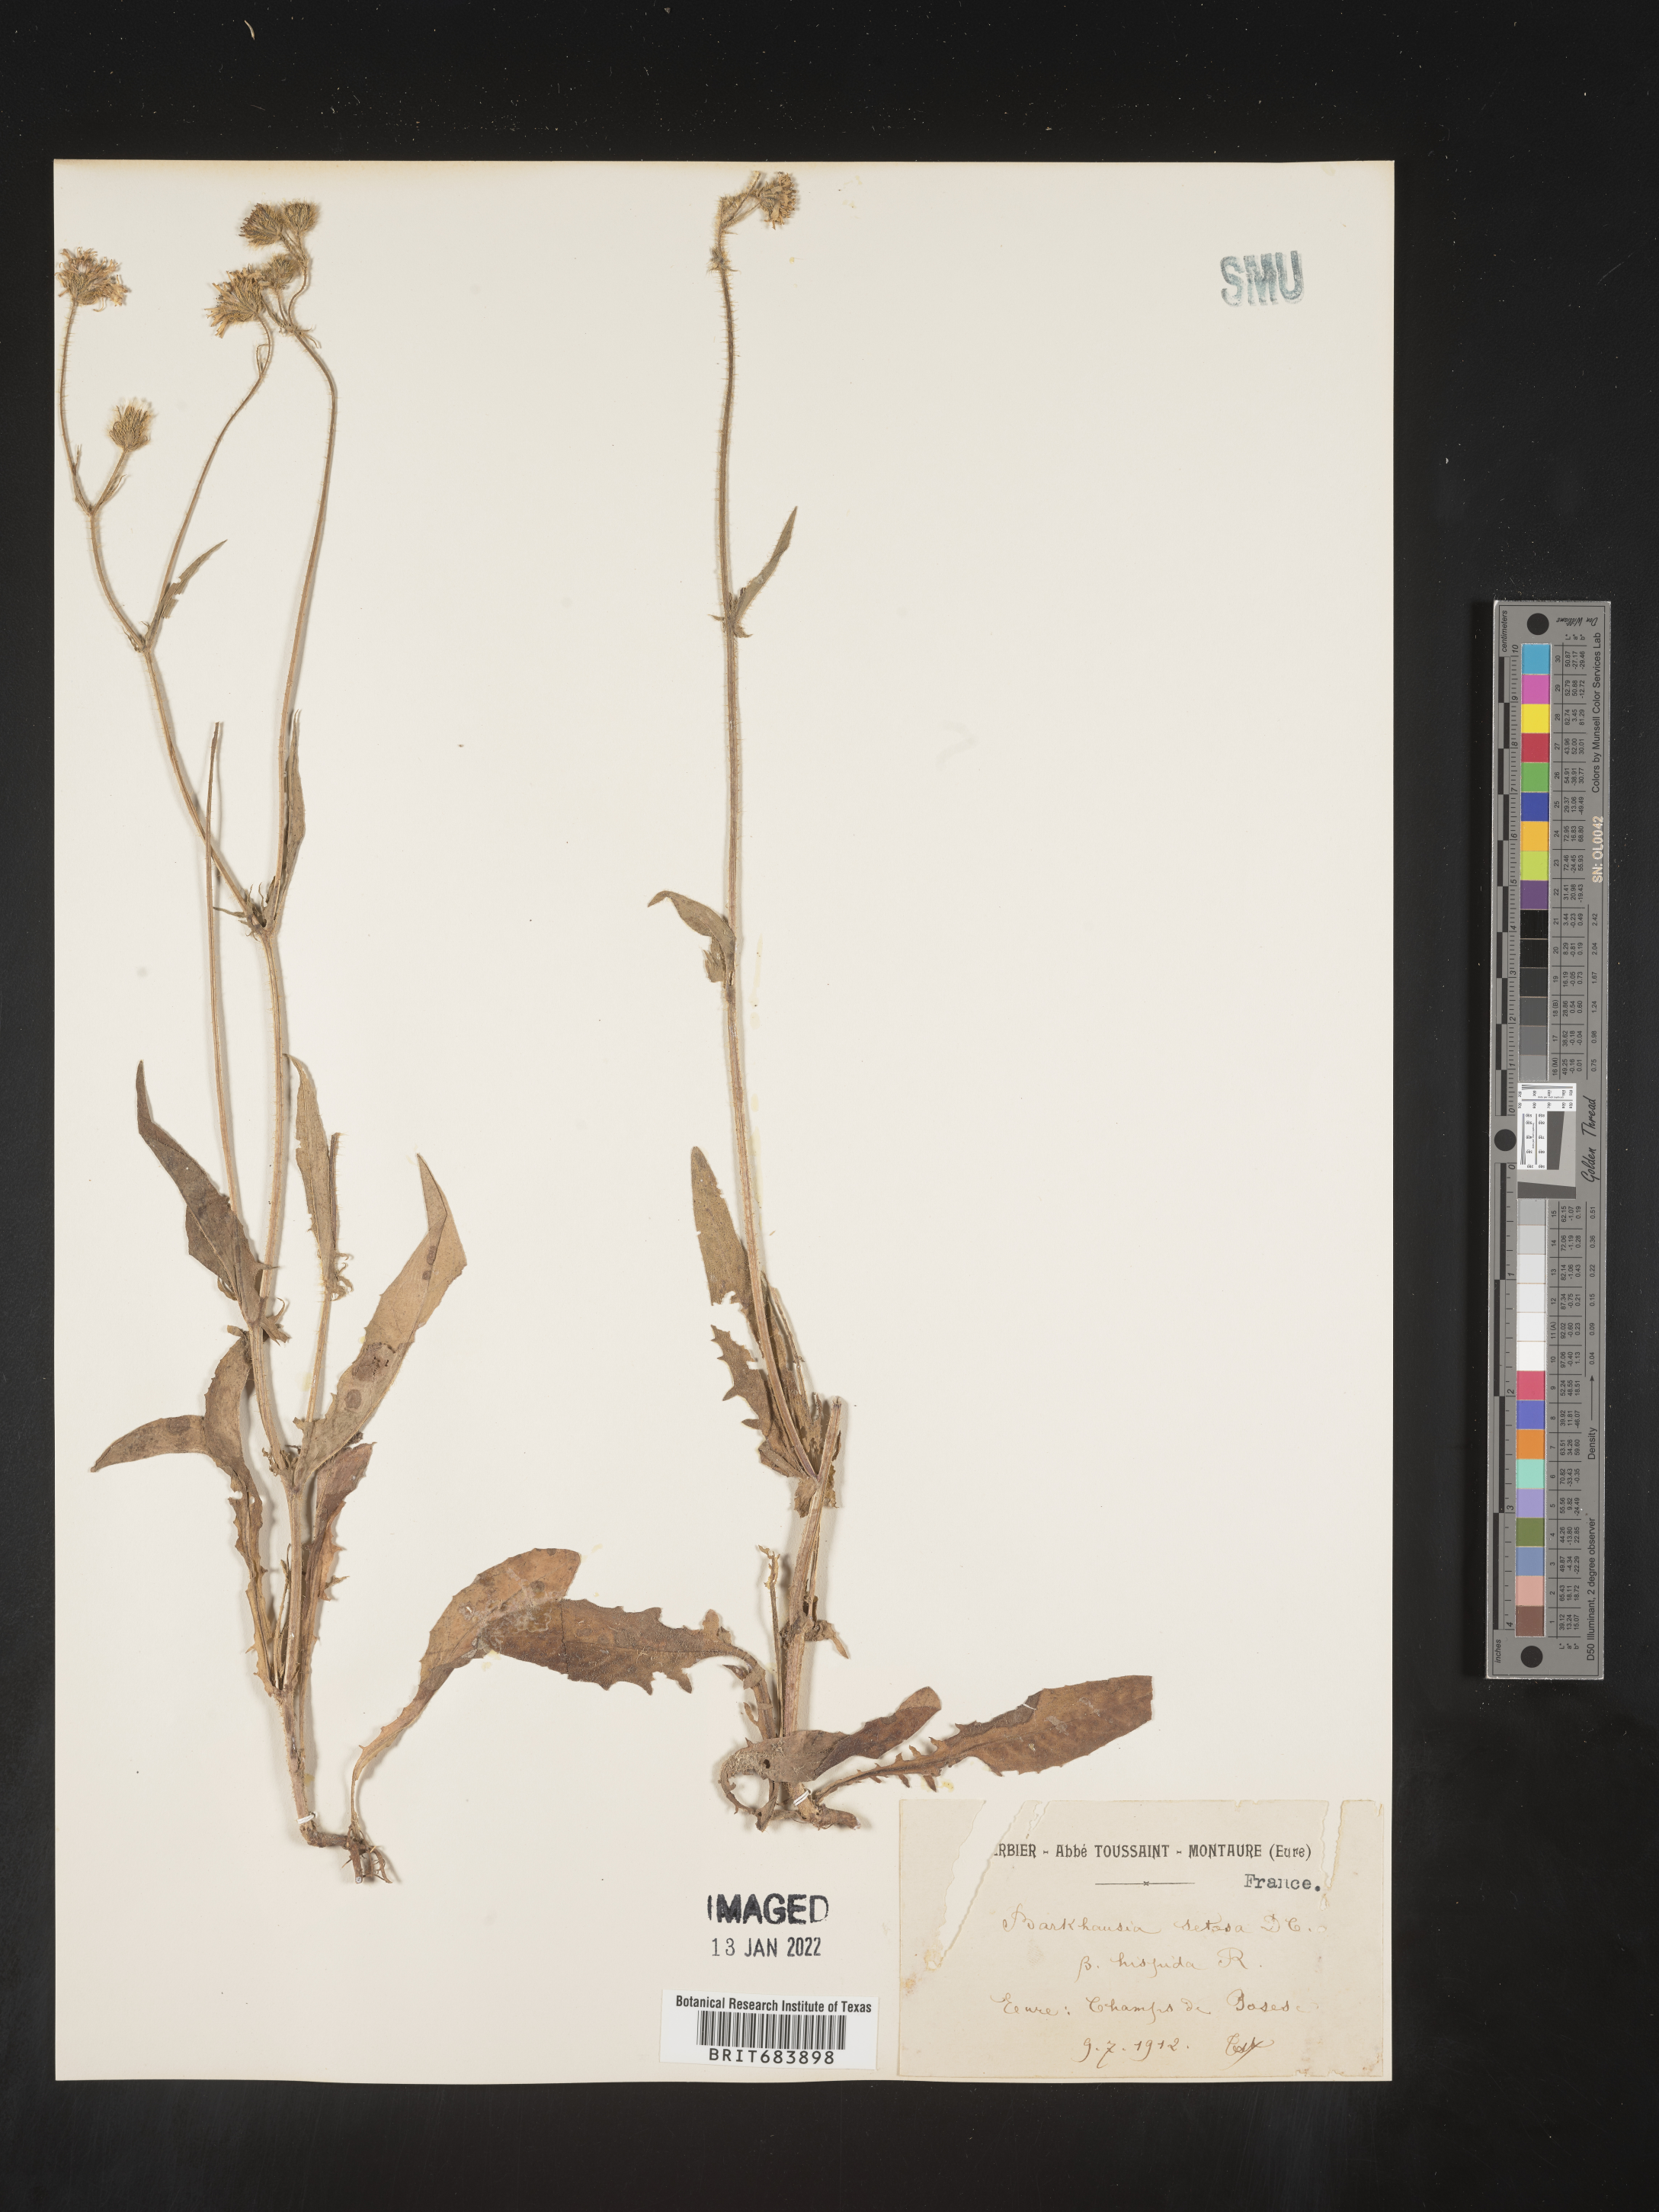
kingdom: Plantae
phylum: Tracheophyta
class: Magnoliopsida
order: Asterales
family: Asteraceae
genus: Crepis
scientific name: Crepis
